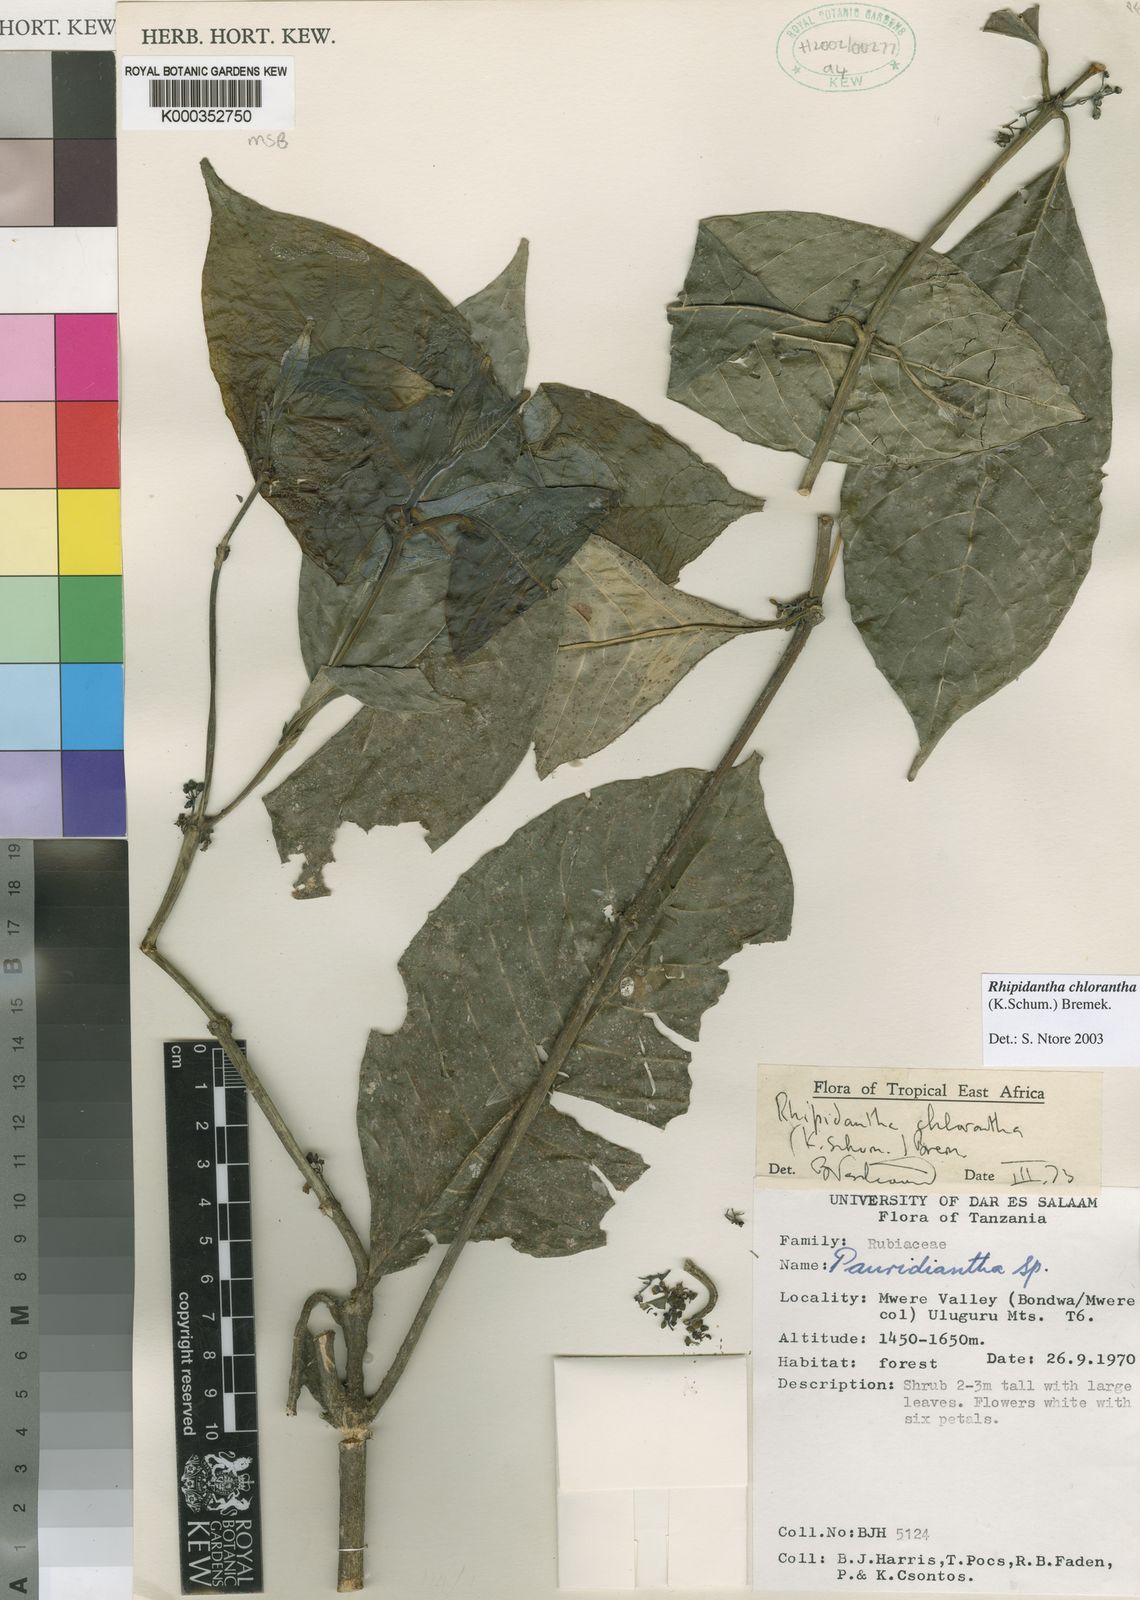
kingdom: Plantae
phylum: Tracheophyta
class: Magnoliopsida
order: Gentianales
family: Rubiaceae
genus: Pauridiantha
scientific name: Pauridiantha chlorantha
